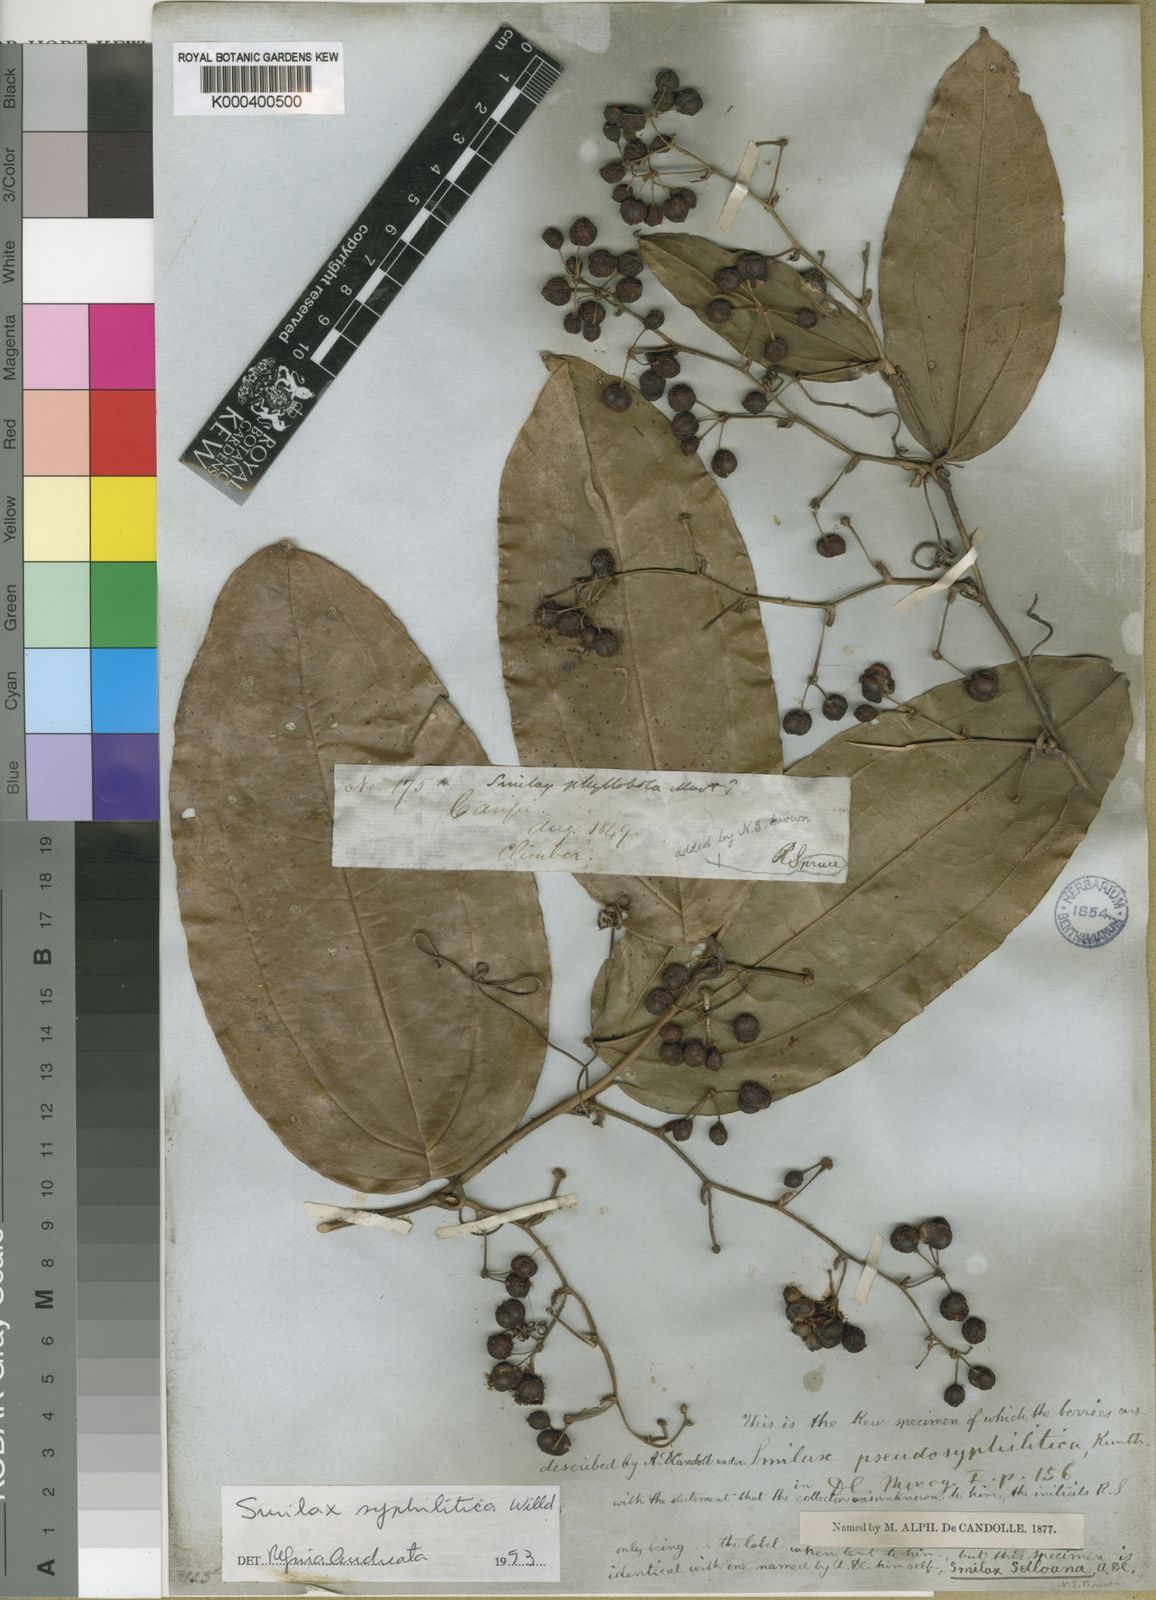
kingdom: Plantae
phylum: Tracheophyta
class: Liliopsida
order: Liliales
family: Smilacaceae
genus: Smilax
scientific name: Smilax siphilitica
